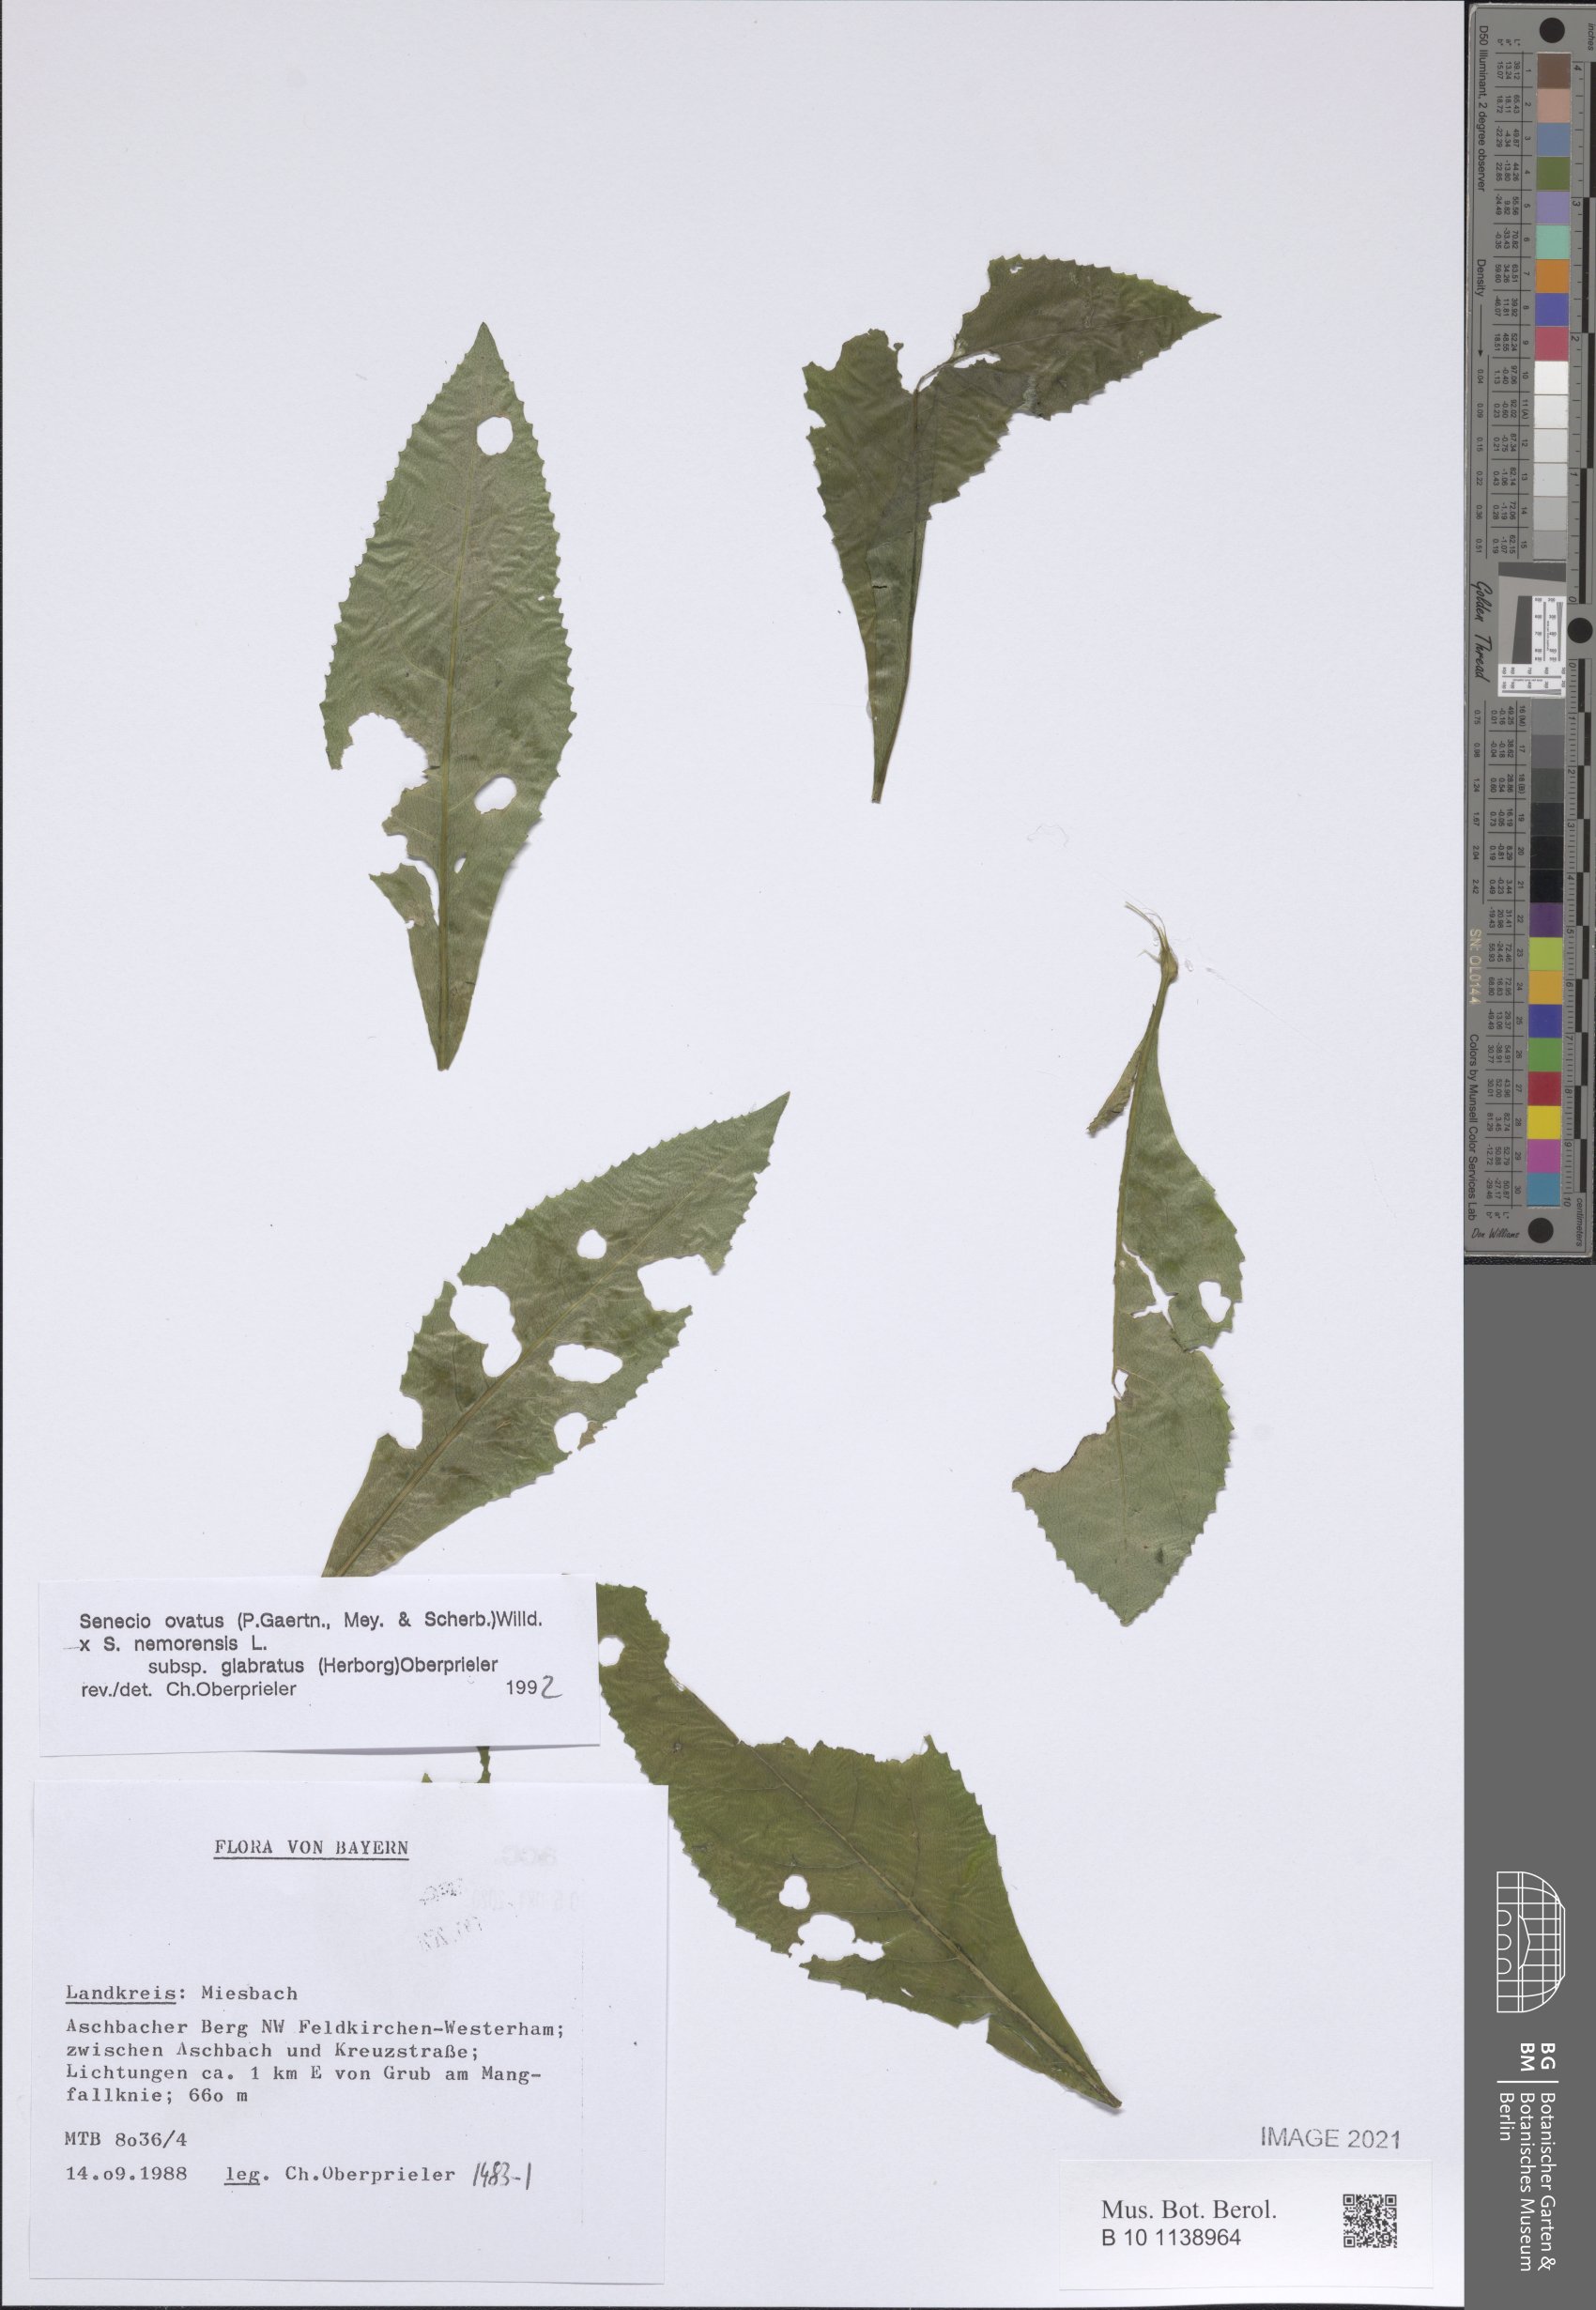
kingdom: Plantae
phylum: Tracheophyta
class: Magnoliopsida
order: Asterales
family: Asteraceae
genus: Senecio
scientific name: Senecio ovatus
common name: Wood ragwort
